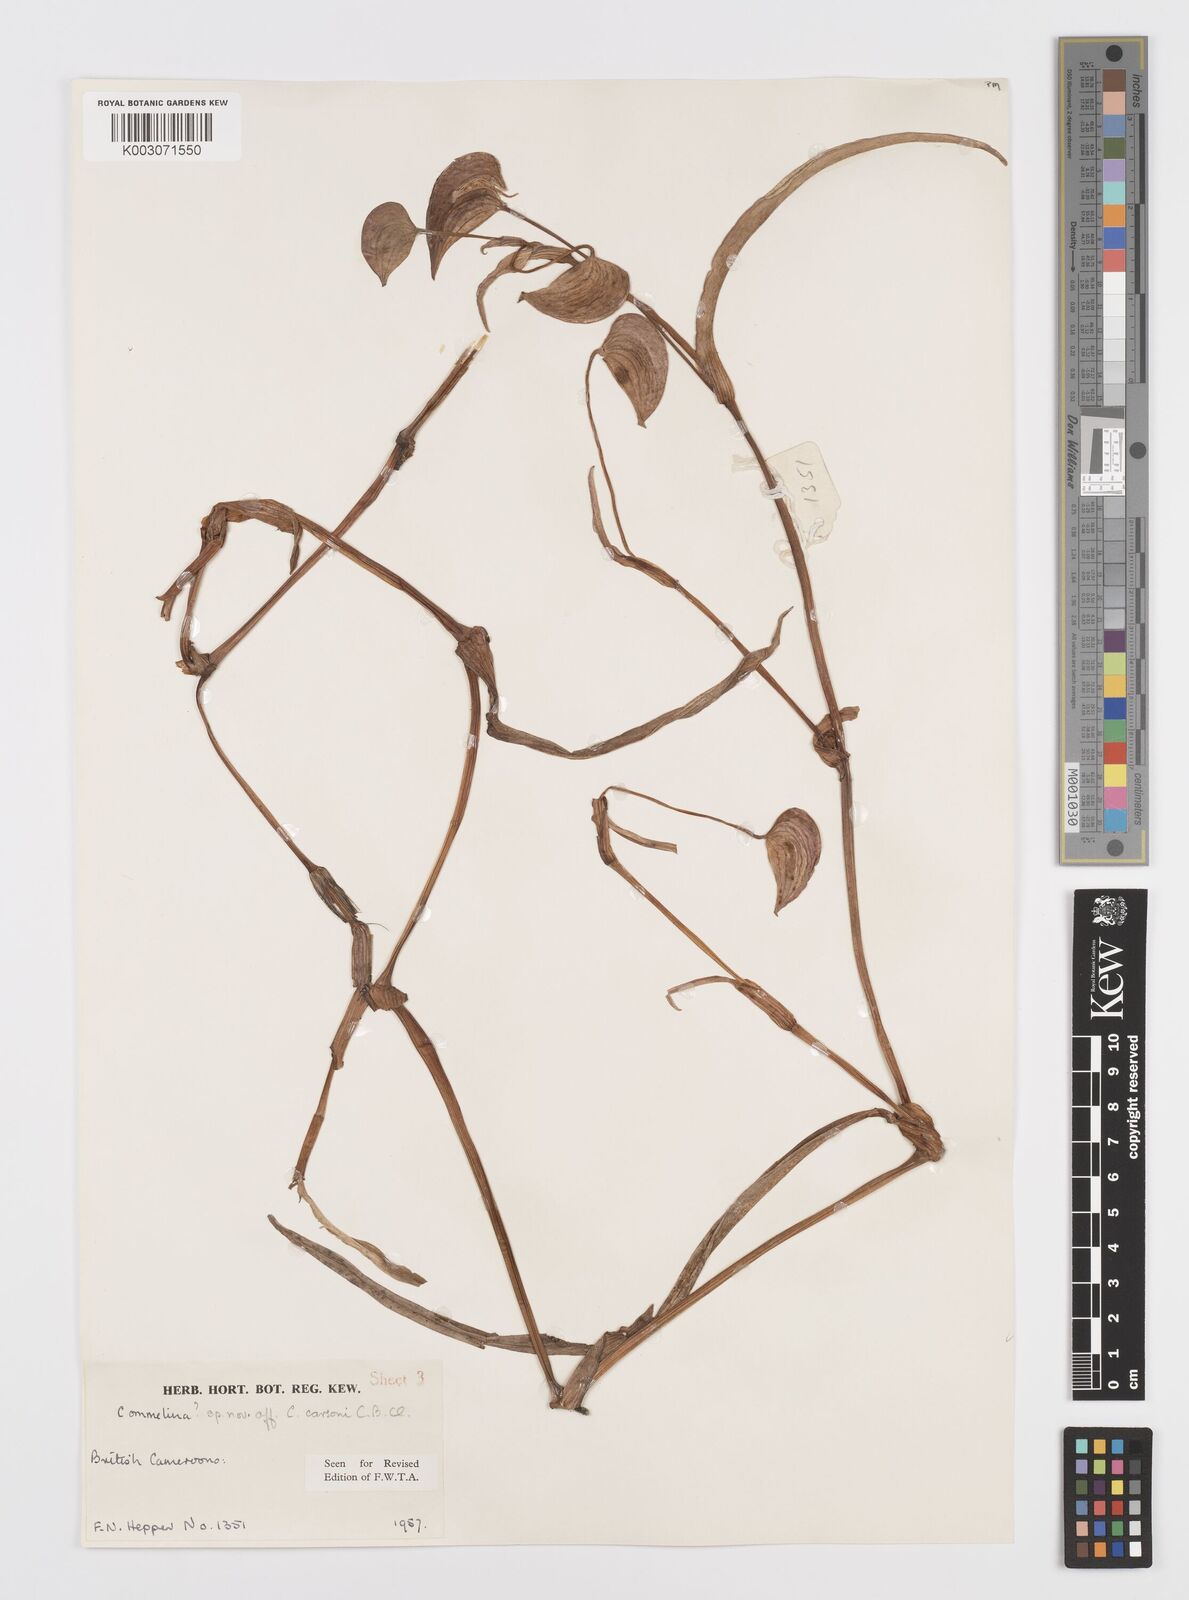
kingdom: Plantae
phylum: Tracheophyta
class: Liliopsida
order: Commelinales
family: Commelinaceae
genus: Commelina
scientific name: Commelina schweinfurthii
